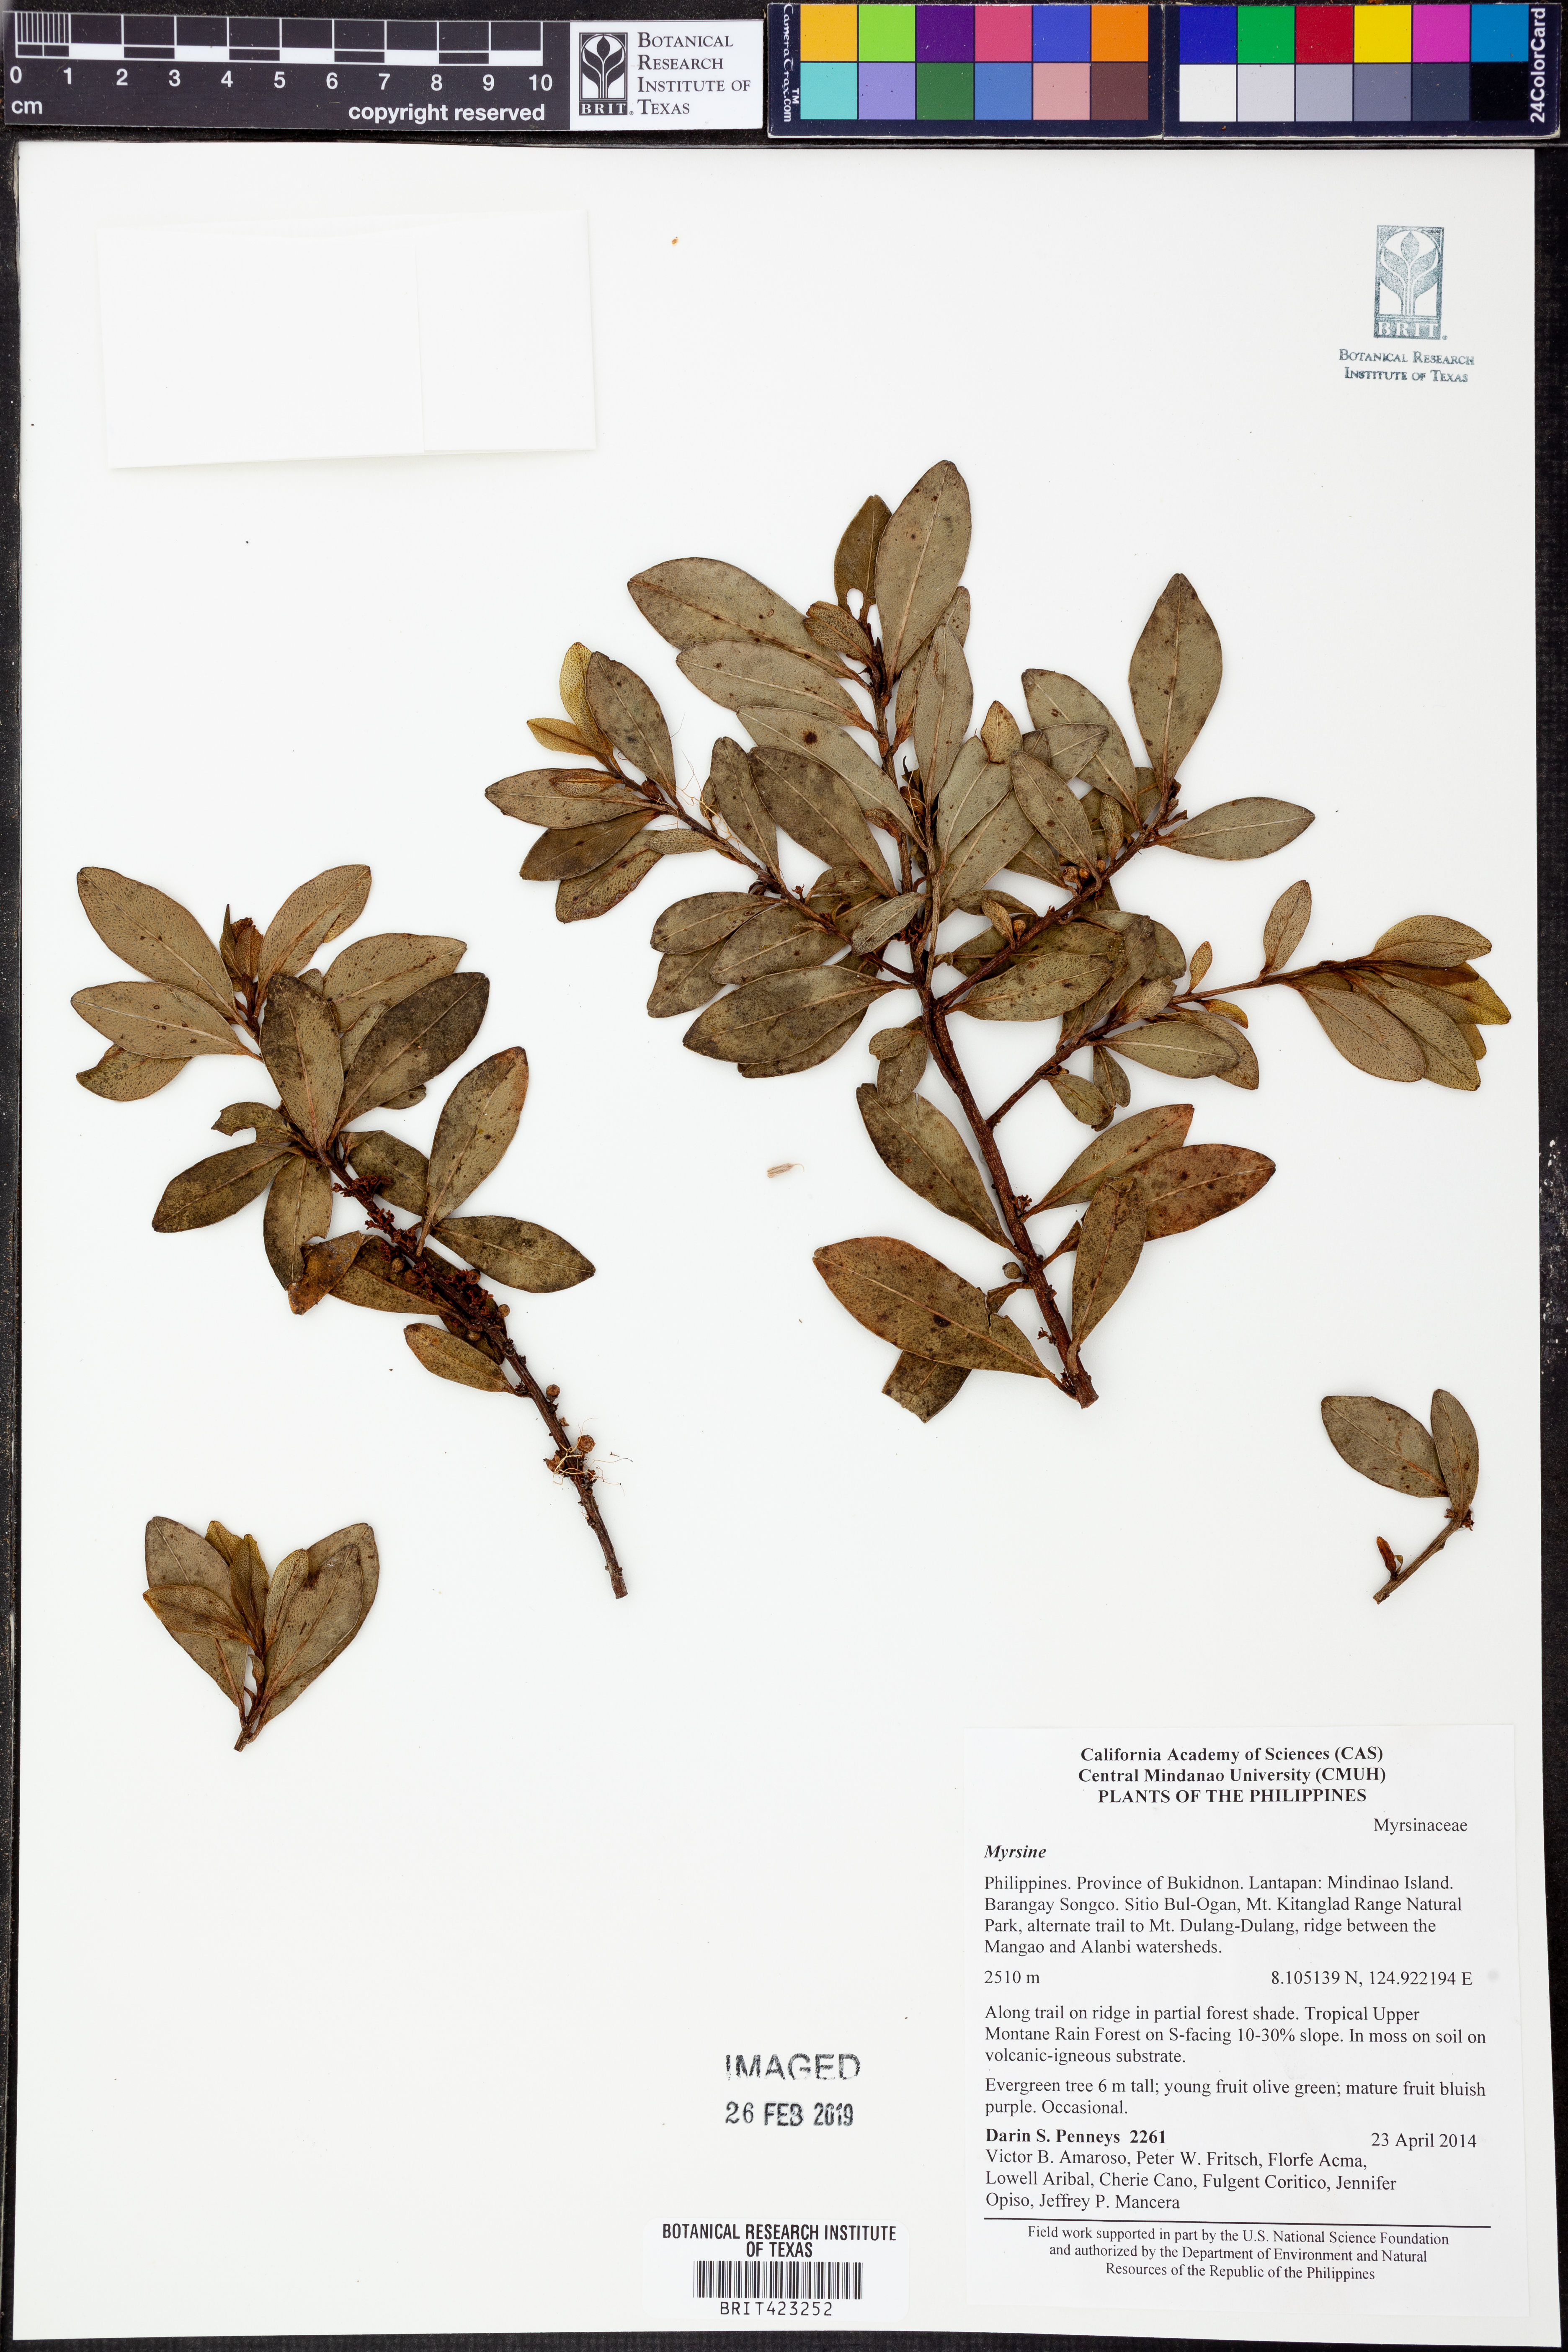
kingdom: Plantae
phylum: Tracheophyta
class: Magnoliopsida
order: Ericales
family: Primulaceae
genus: Myrsine
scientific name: Myrsine
